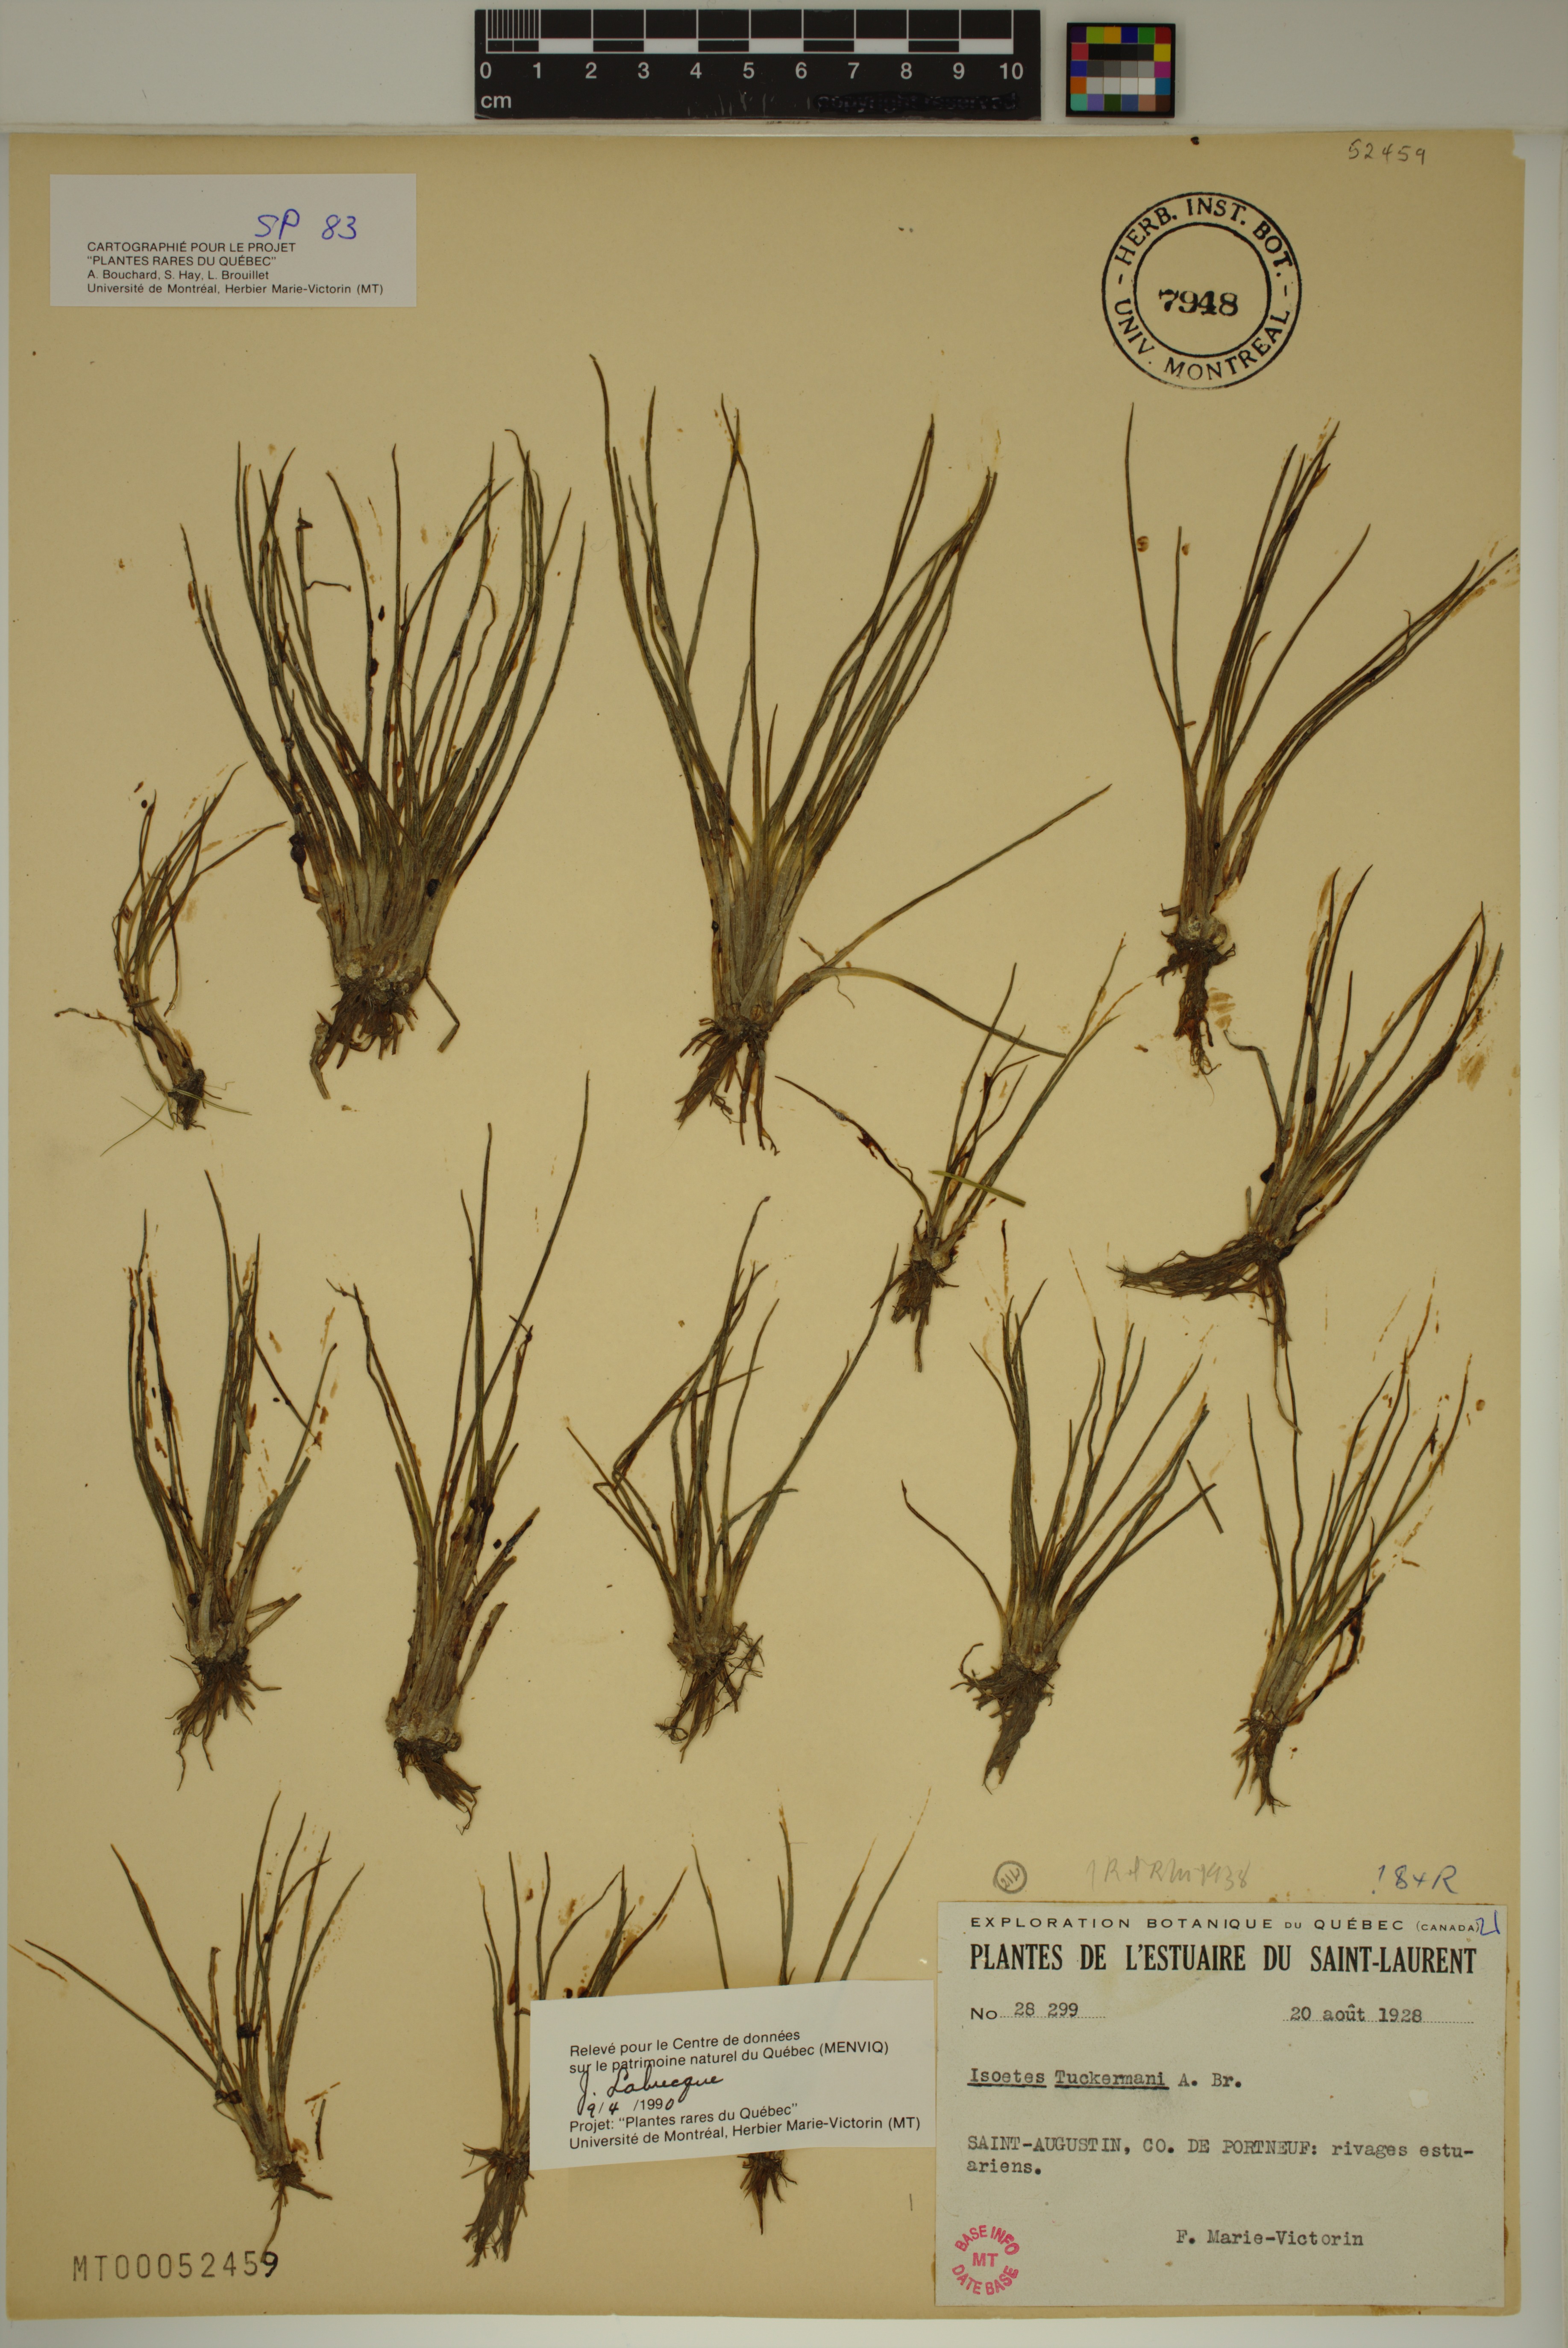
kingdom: Plantae
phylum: Tracheophyta
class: Lycopodiopsida
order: Isoetales
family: Isoetaceae
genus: Isoetes
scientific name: Isoetes laurentiana
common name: St. lawrence quillwort
